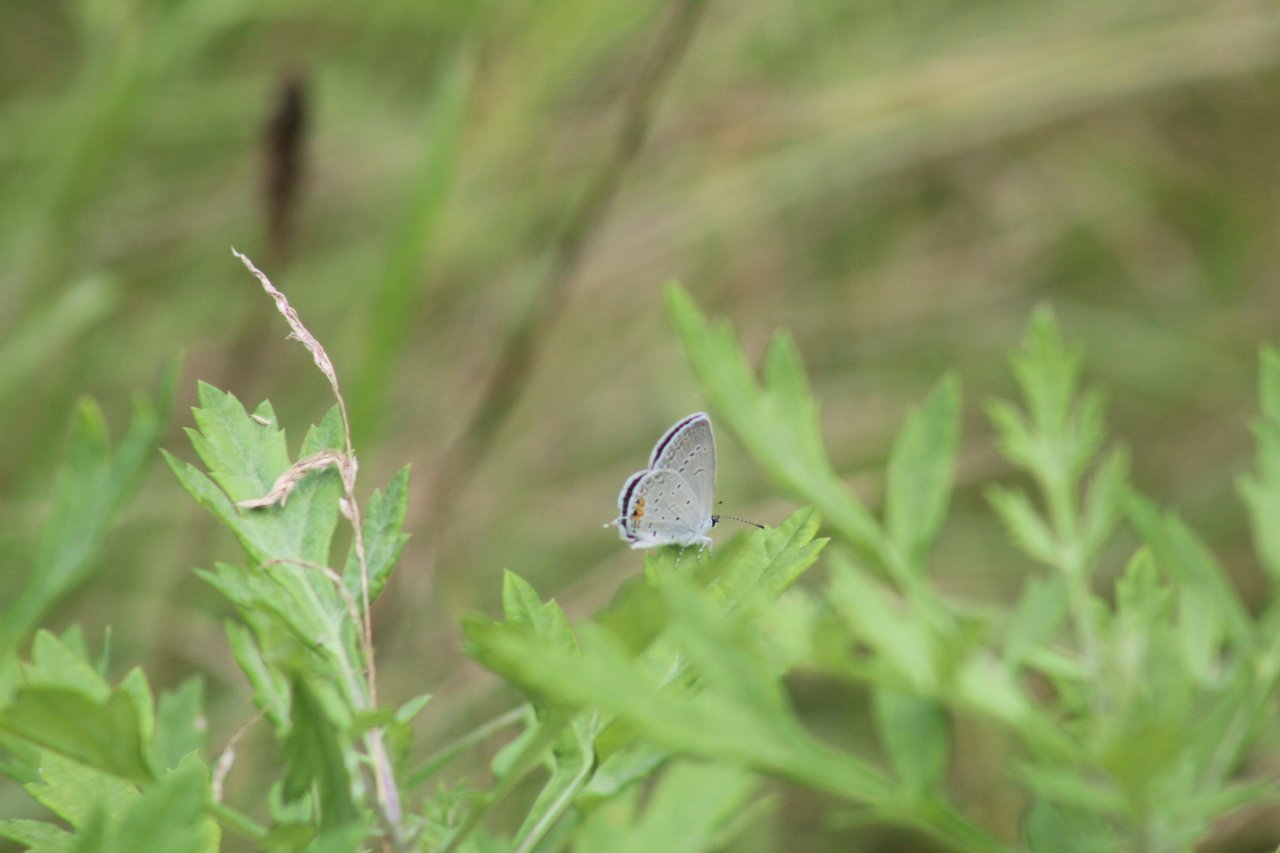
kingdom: Animalia
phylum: Arthropoda
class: Insecta
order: Lepidoptera
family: Lycaenidae
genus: Elkalyce
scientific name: Elkalyce comyntas
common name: Eastern Tailed-Blue
